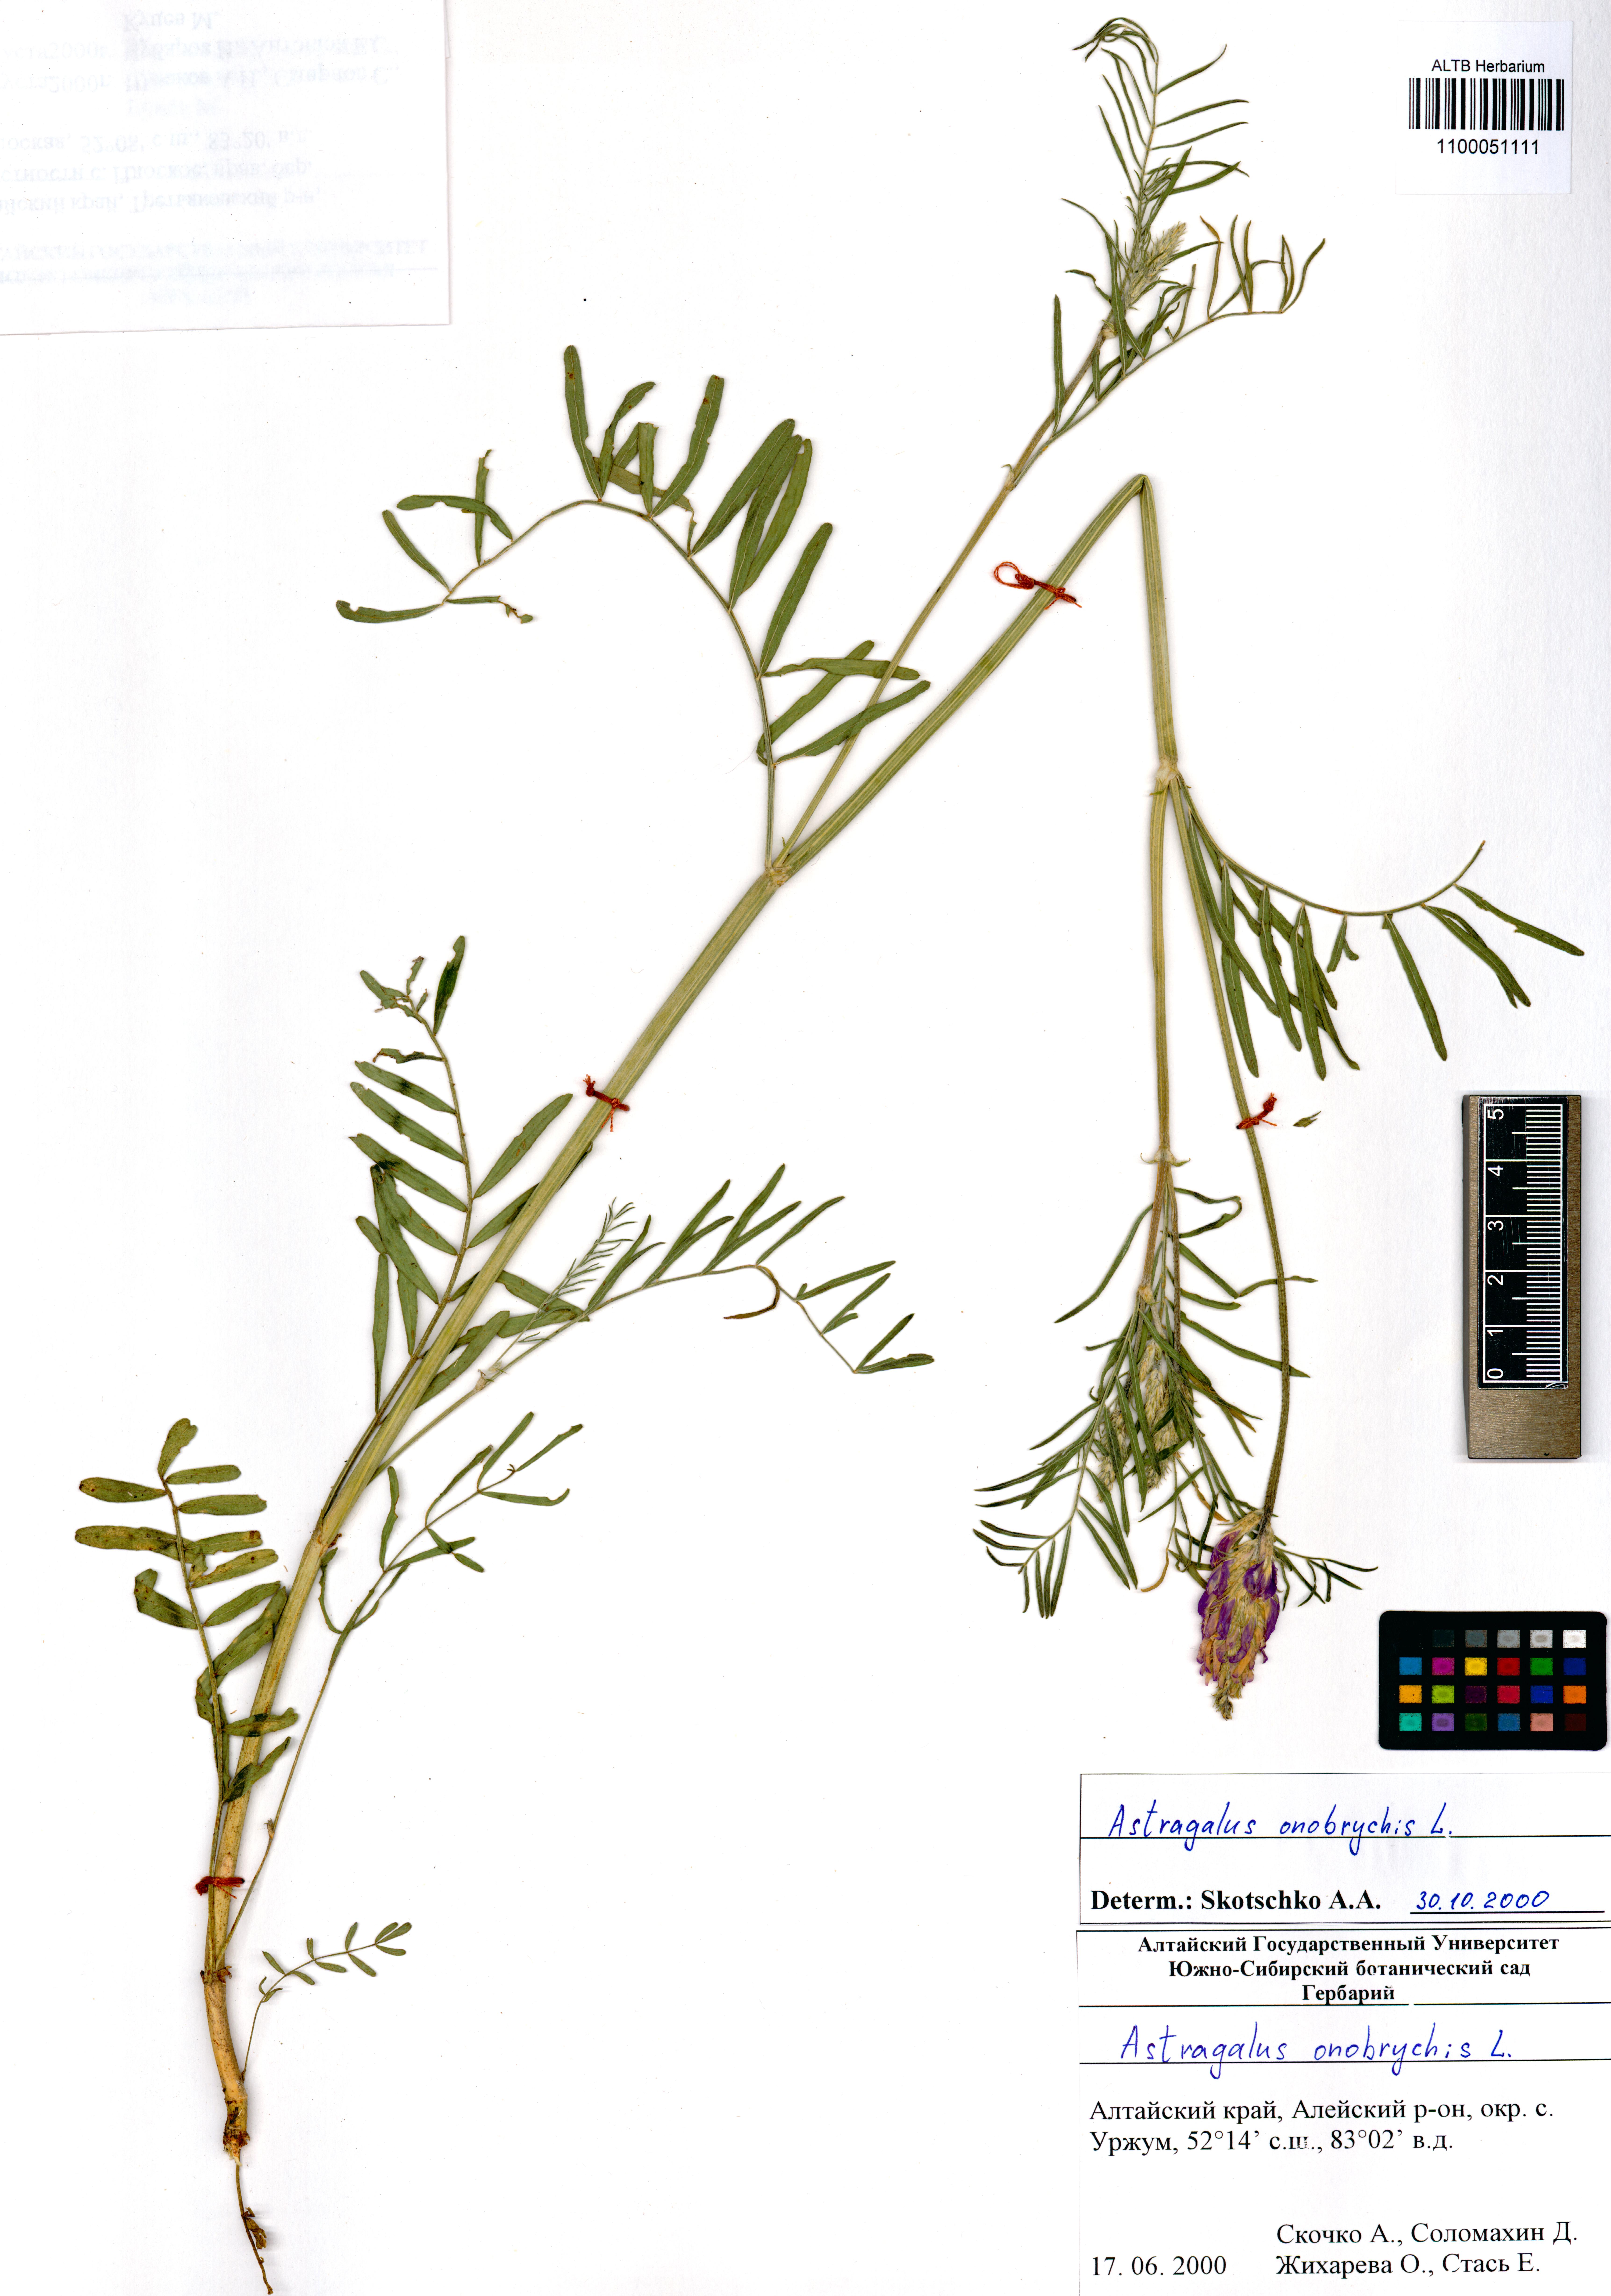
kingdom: Plantae
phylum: Tracheophyta
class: Magnoliopsida
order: Fabales
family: Fabaceae
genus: Astragalus
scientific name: Astragalus onobrychis
